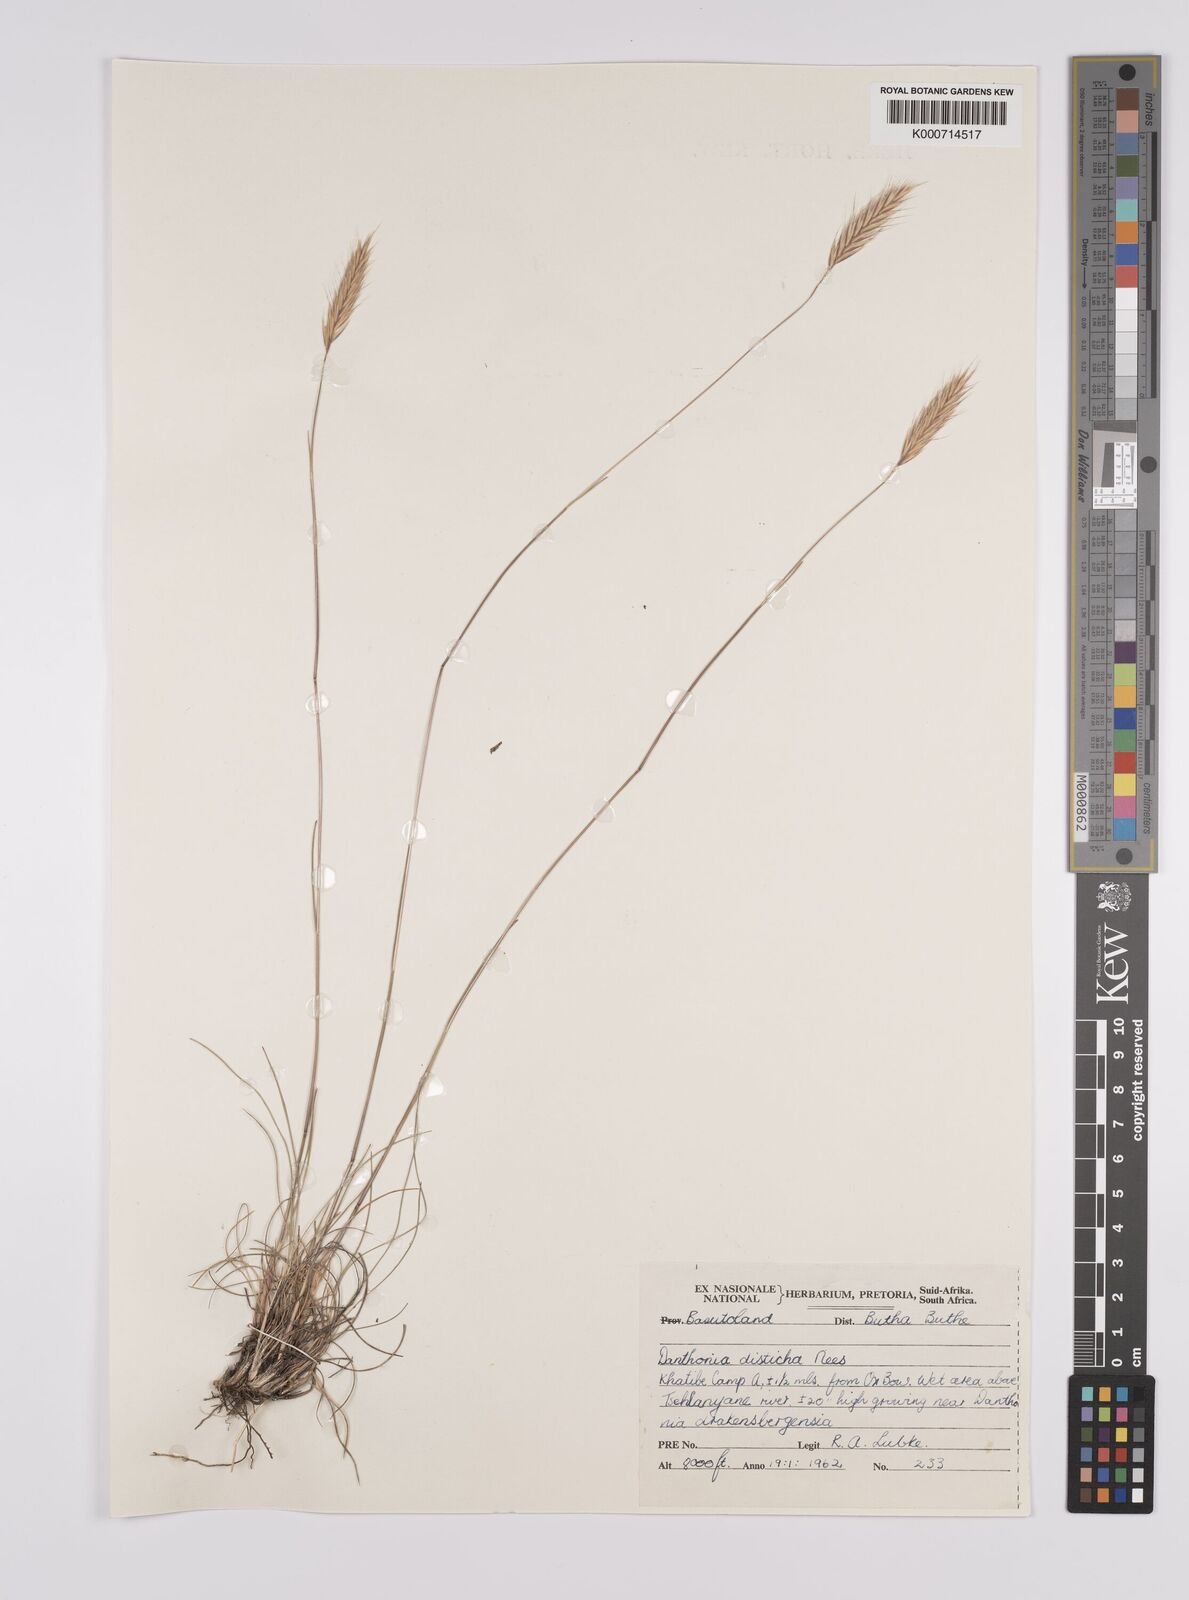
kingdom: Plantae
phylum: Tracheophyta
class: Liliopsida
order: Poales
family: Poaceae
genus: Tenaxia
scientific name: Tenaxia disticha
